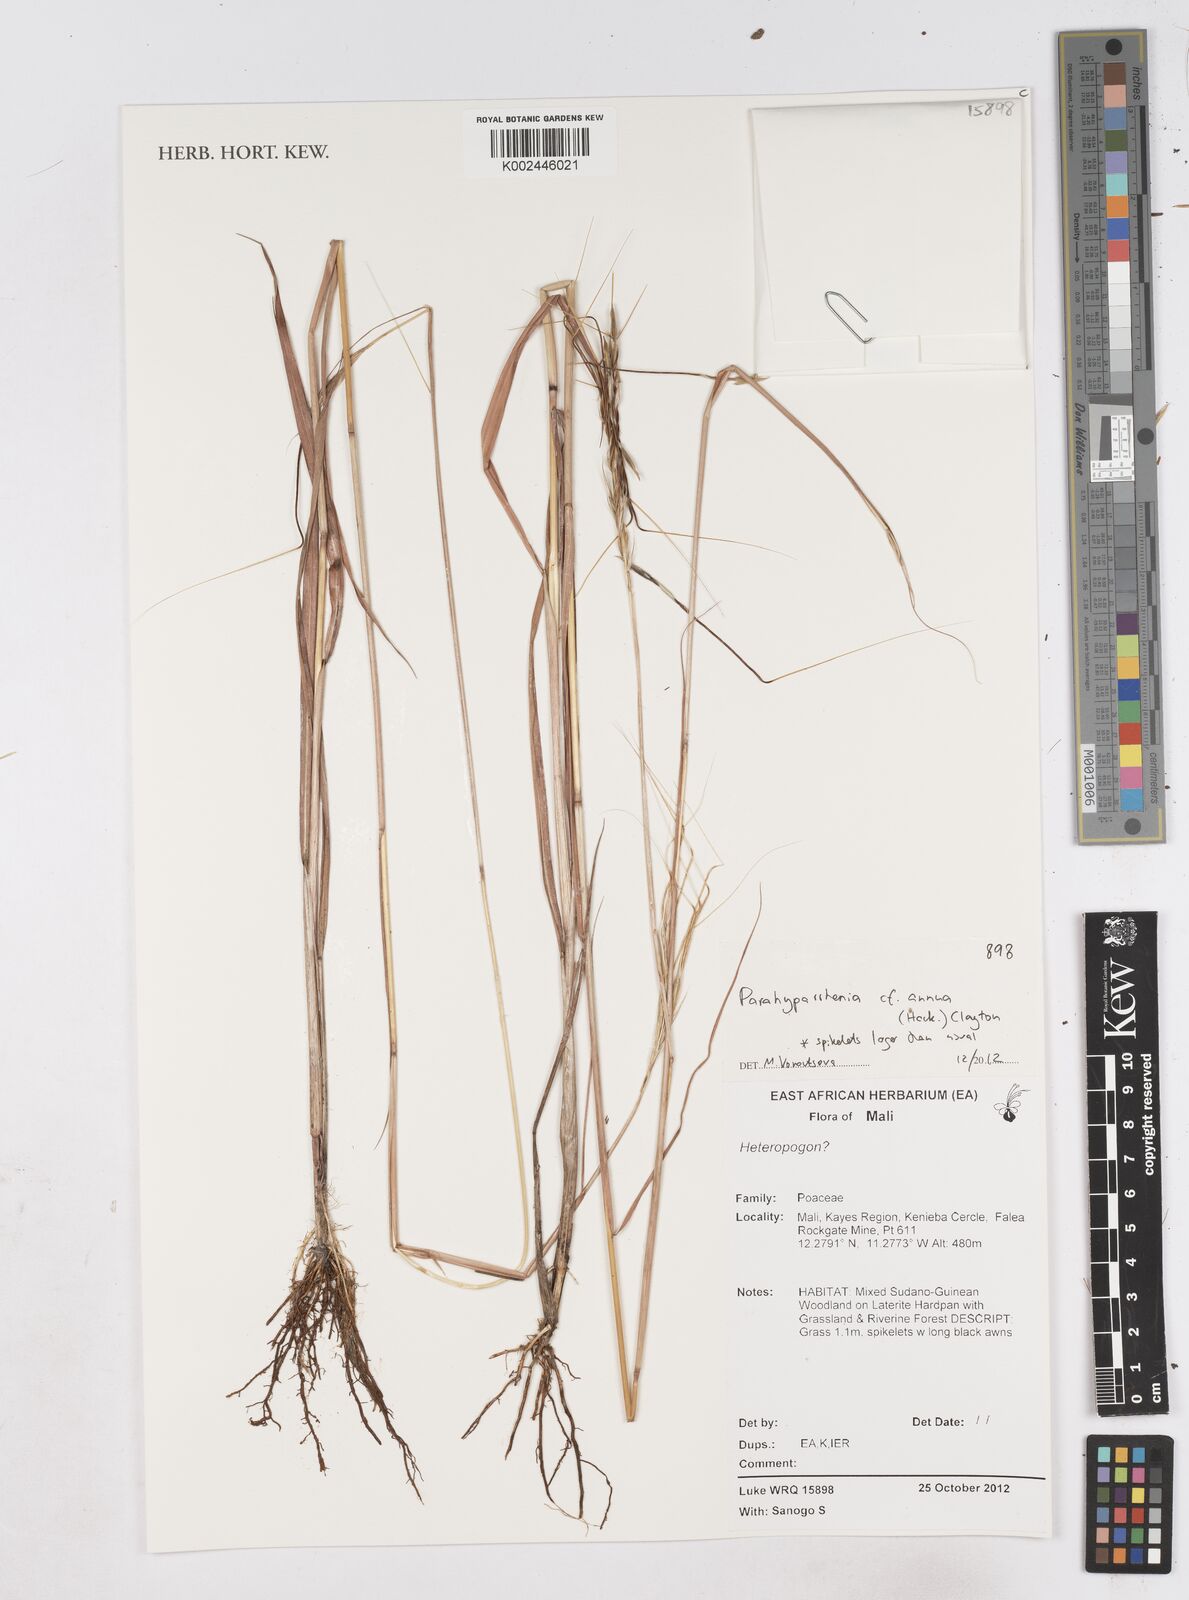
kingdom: Plantae
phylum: Tracheophyta
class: Liliopsida
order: Poales
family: Poaceae
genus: Parahyparrhenia
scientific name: Parahyparrhenia annua
